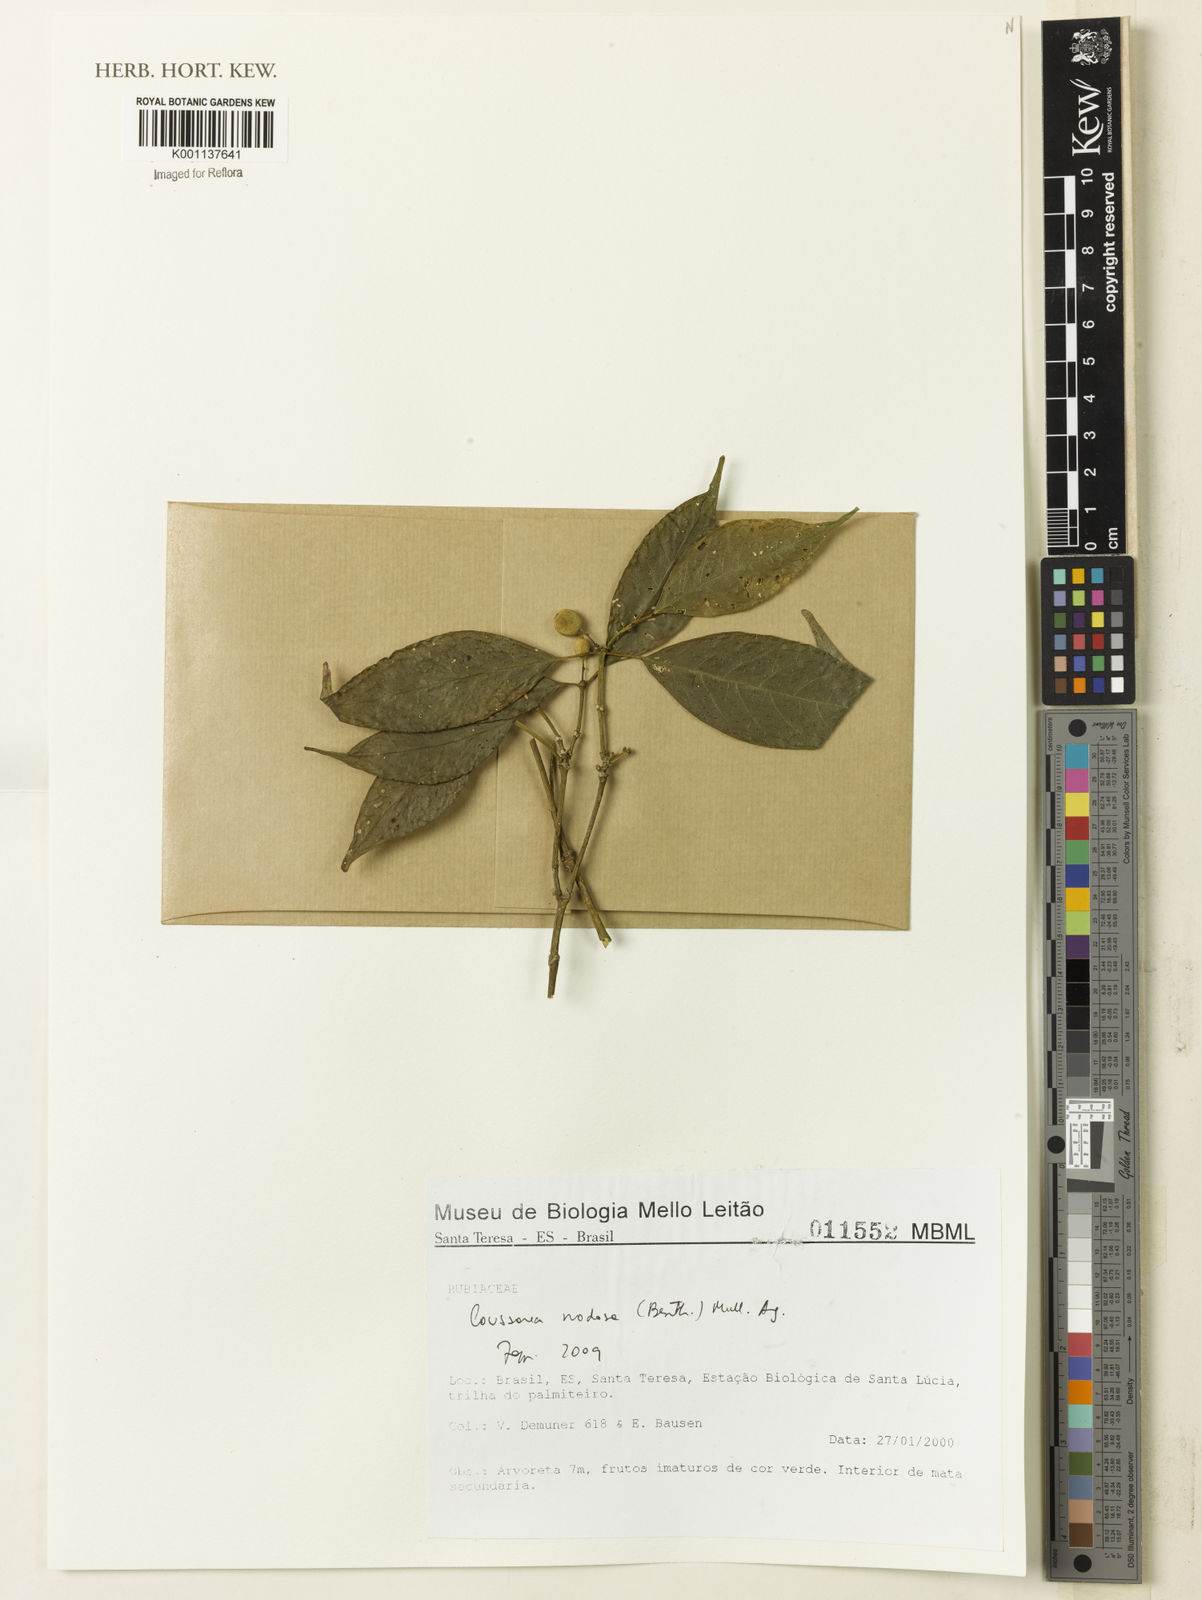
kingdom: Plantae
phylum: Tracheophyta
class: Magnoliopsida
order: Gentianales
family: Rubiaceae
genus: Coussarea
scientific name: Coussarea
